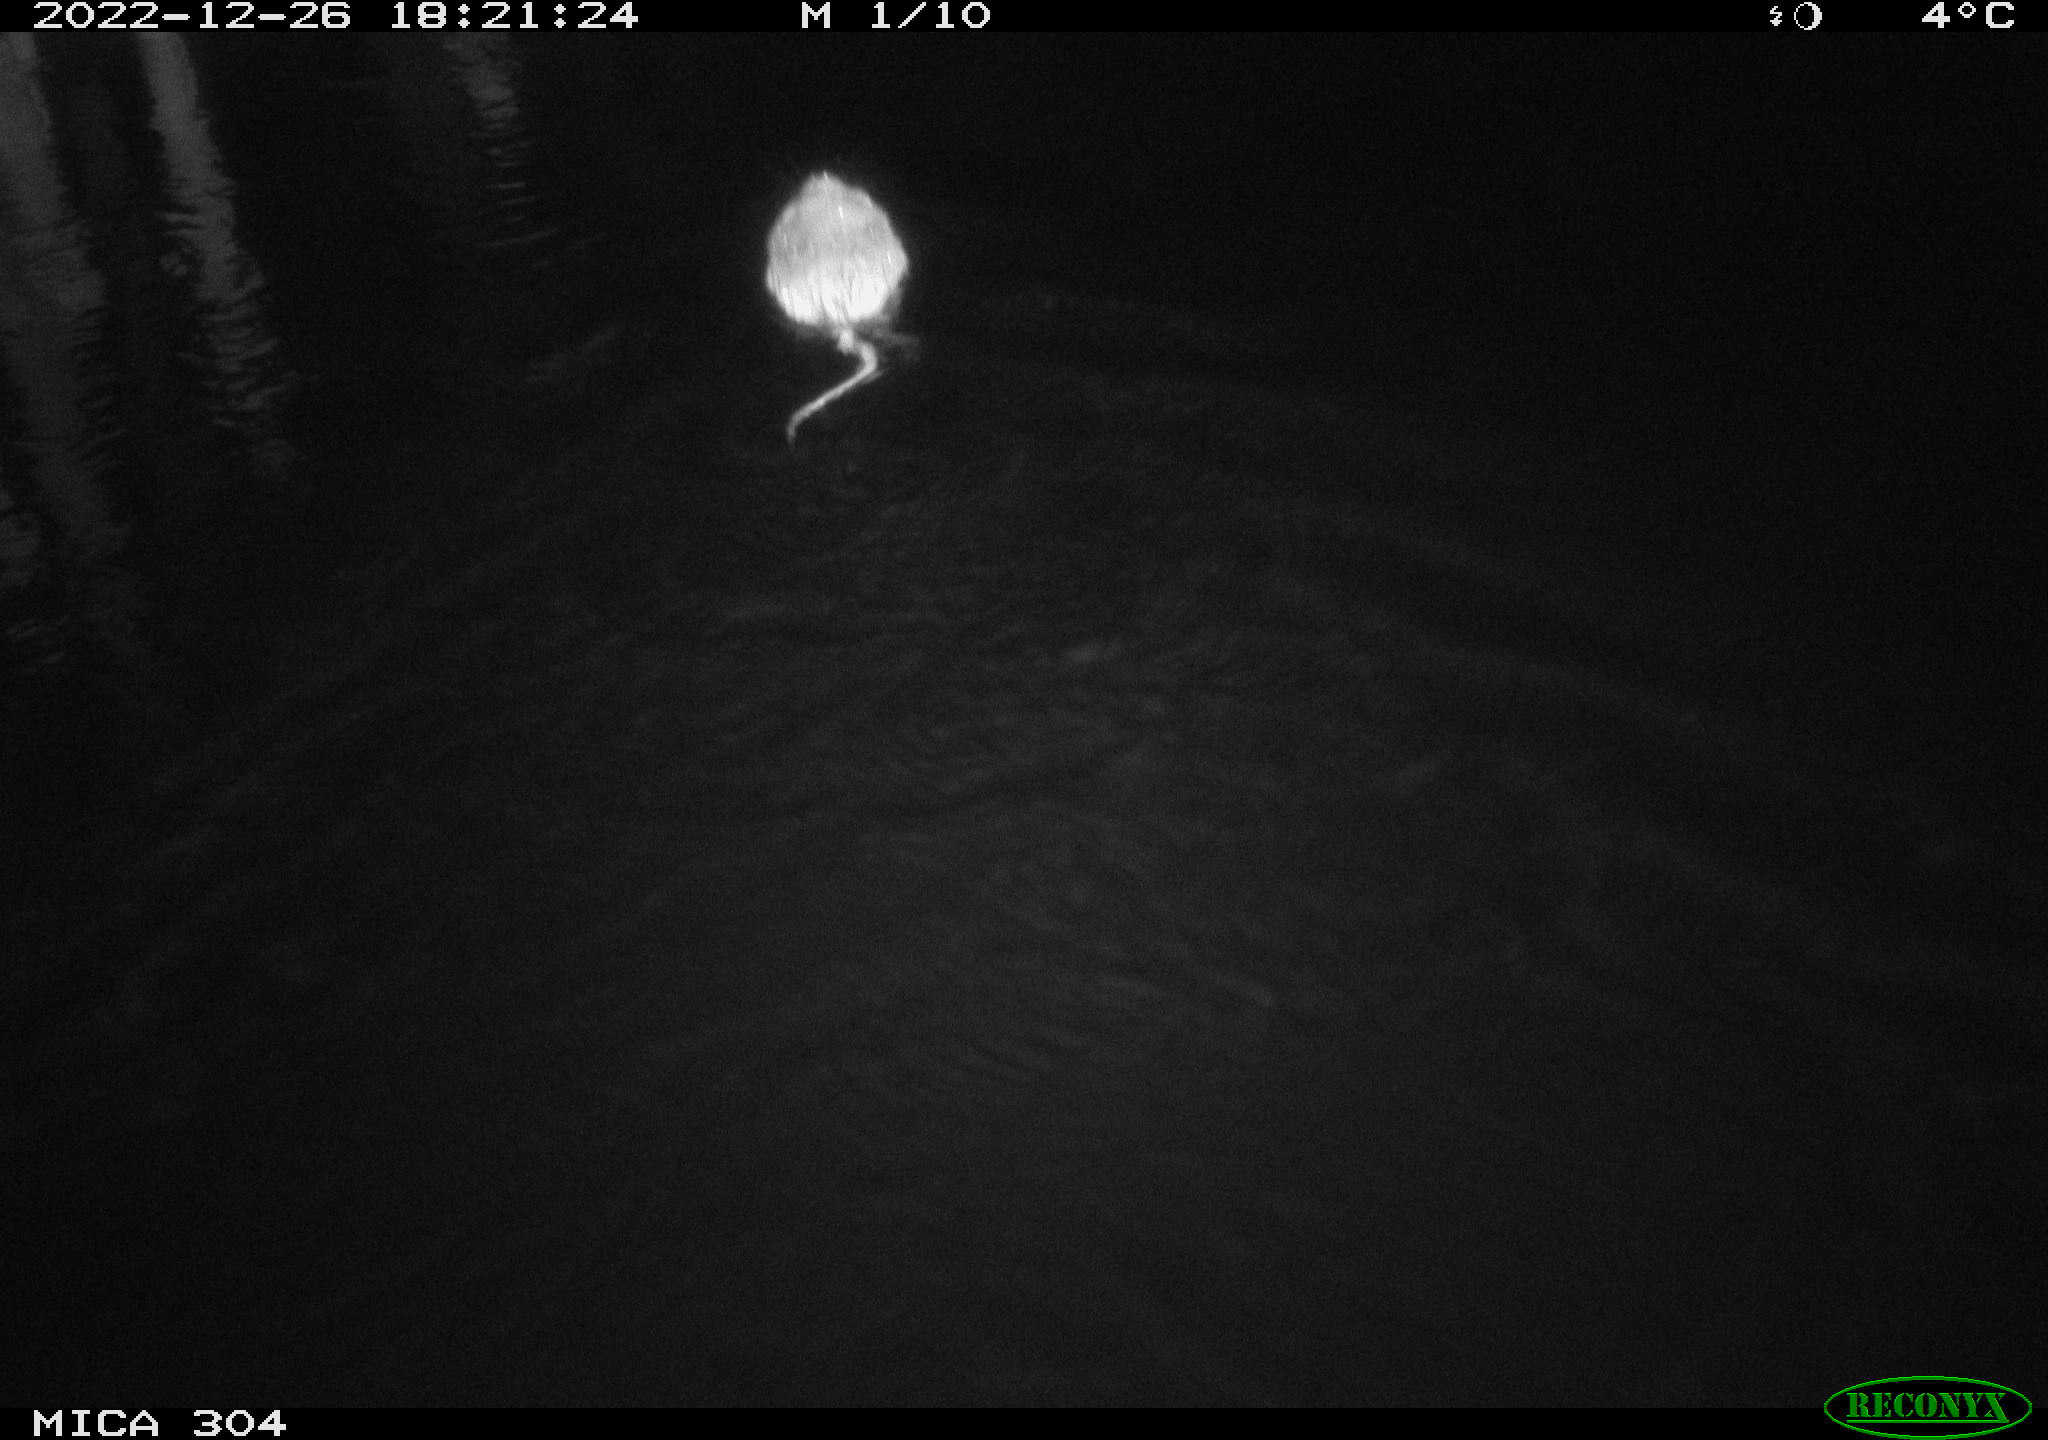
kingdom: Animalia
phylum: Chordata
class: Mammalia
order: Rodentia
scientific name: Rodentia
